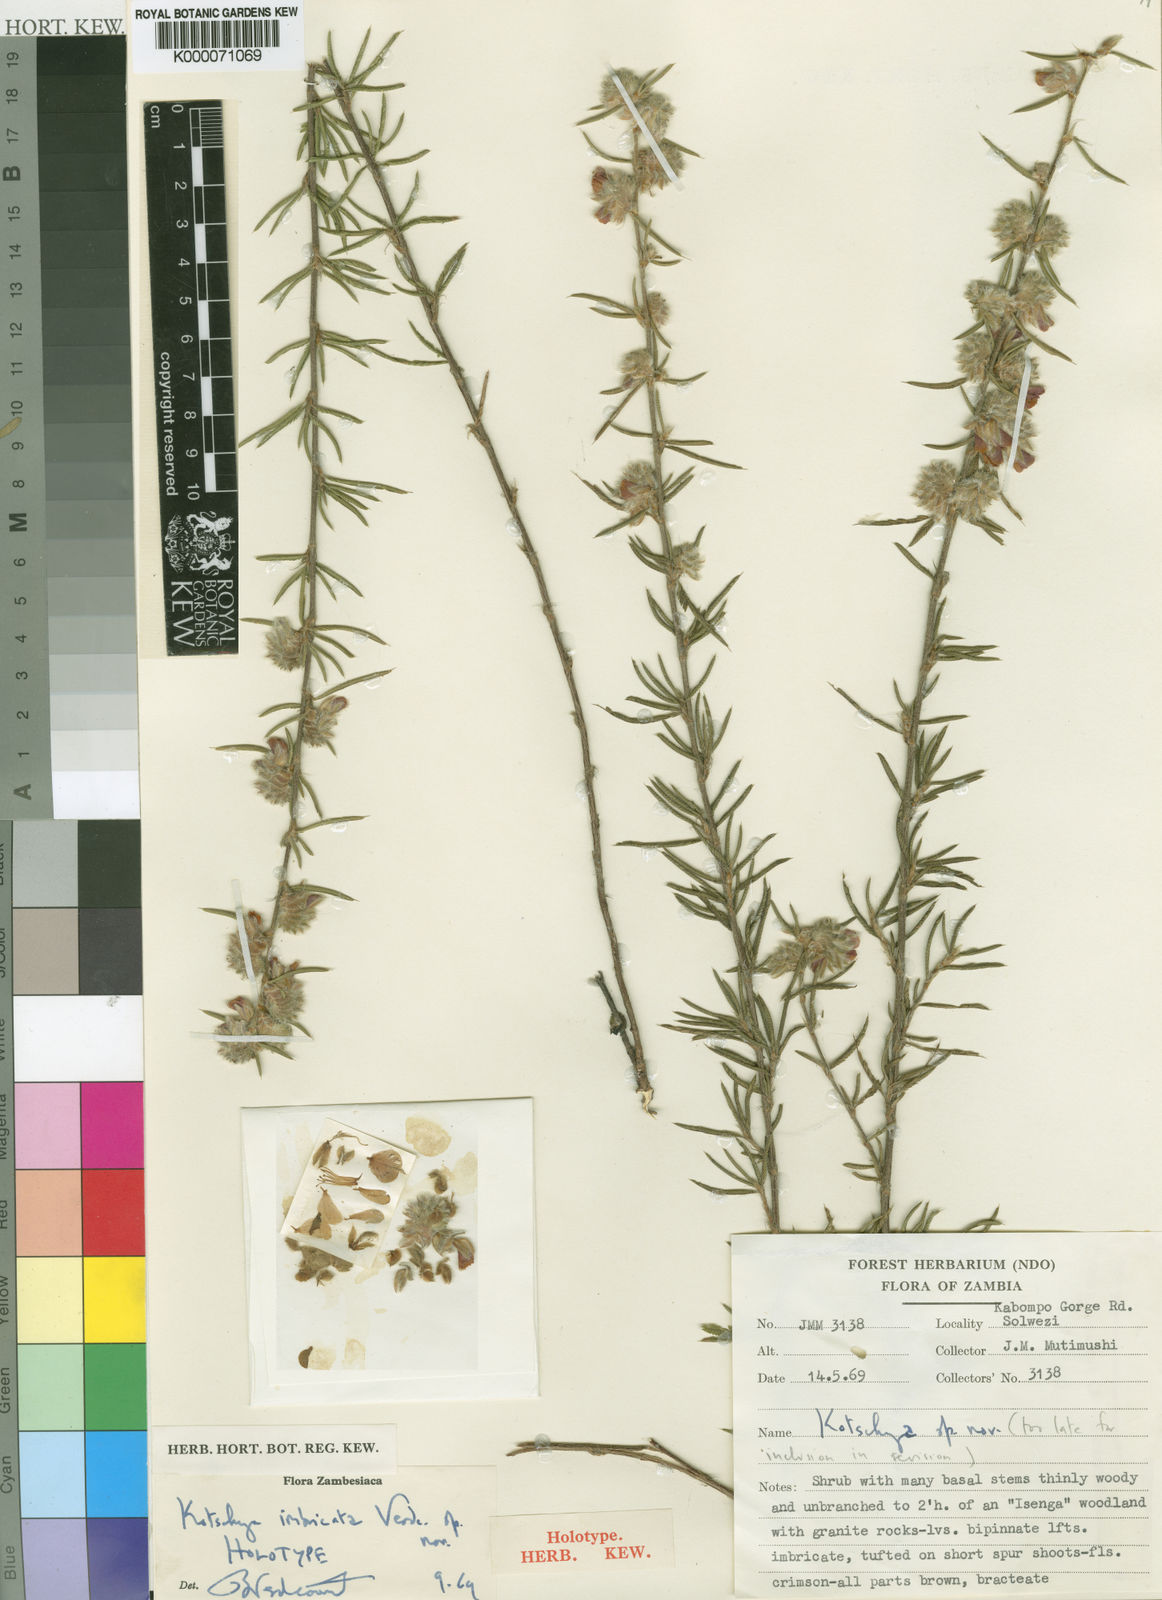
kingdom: Plantae
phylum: Tracheophyta
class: Magnoliopsida
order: Fabales
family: Fabaceae
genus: Kotschya
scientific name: Kotschya imbricata
